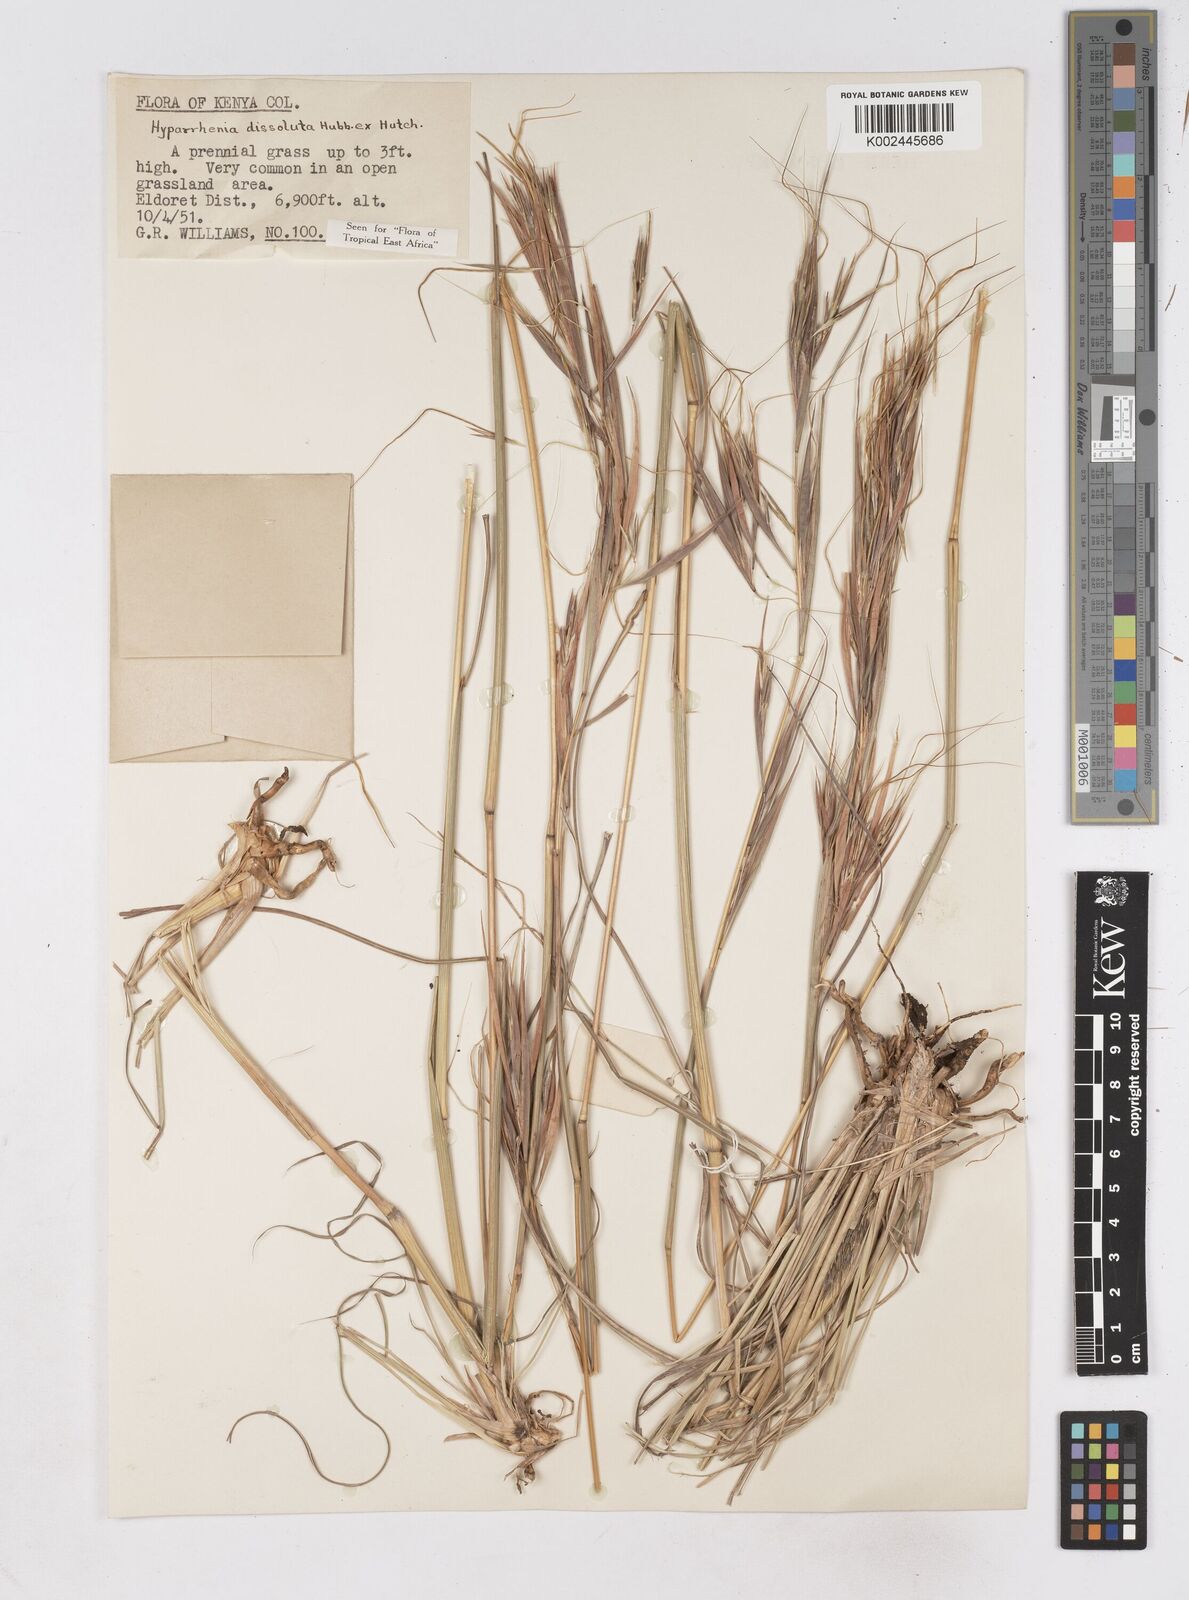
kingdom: Plantae
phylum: Tracheophyta
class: Liliopsida
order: Poales
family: Poaceae
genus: Hyperthelia
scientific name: Hyperthelia dissoluta
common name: Yellow thatching grass
